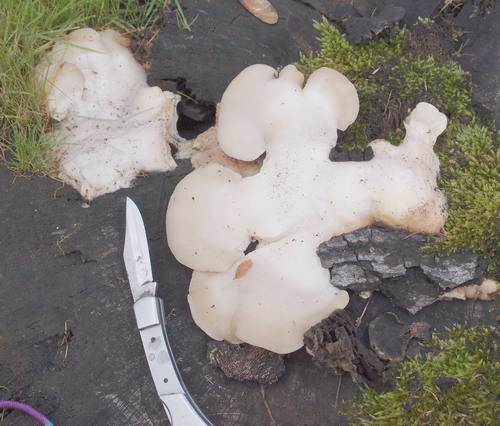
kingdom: Fungi
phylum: Basidiomycota
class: Agaricomycetes
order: Polyporales
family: Incrustoporiaceae
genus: Tyromyces
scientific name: Tyromyces chioneus
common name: stor blødporesvamp
